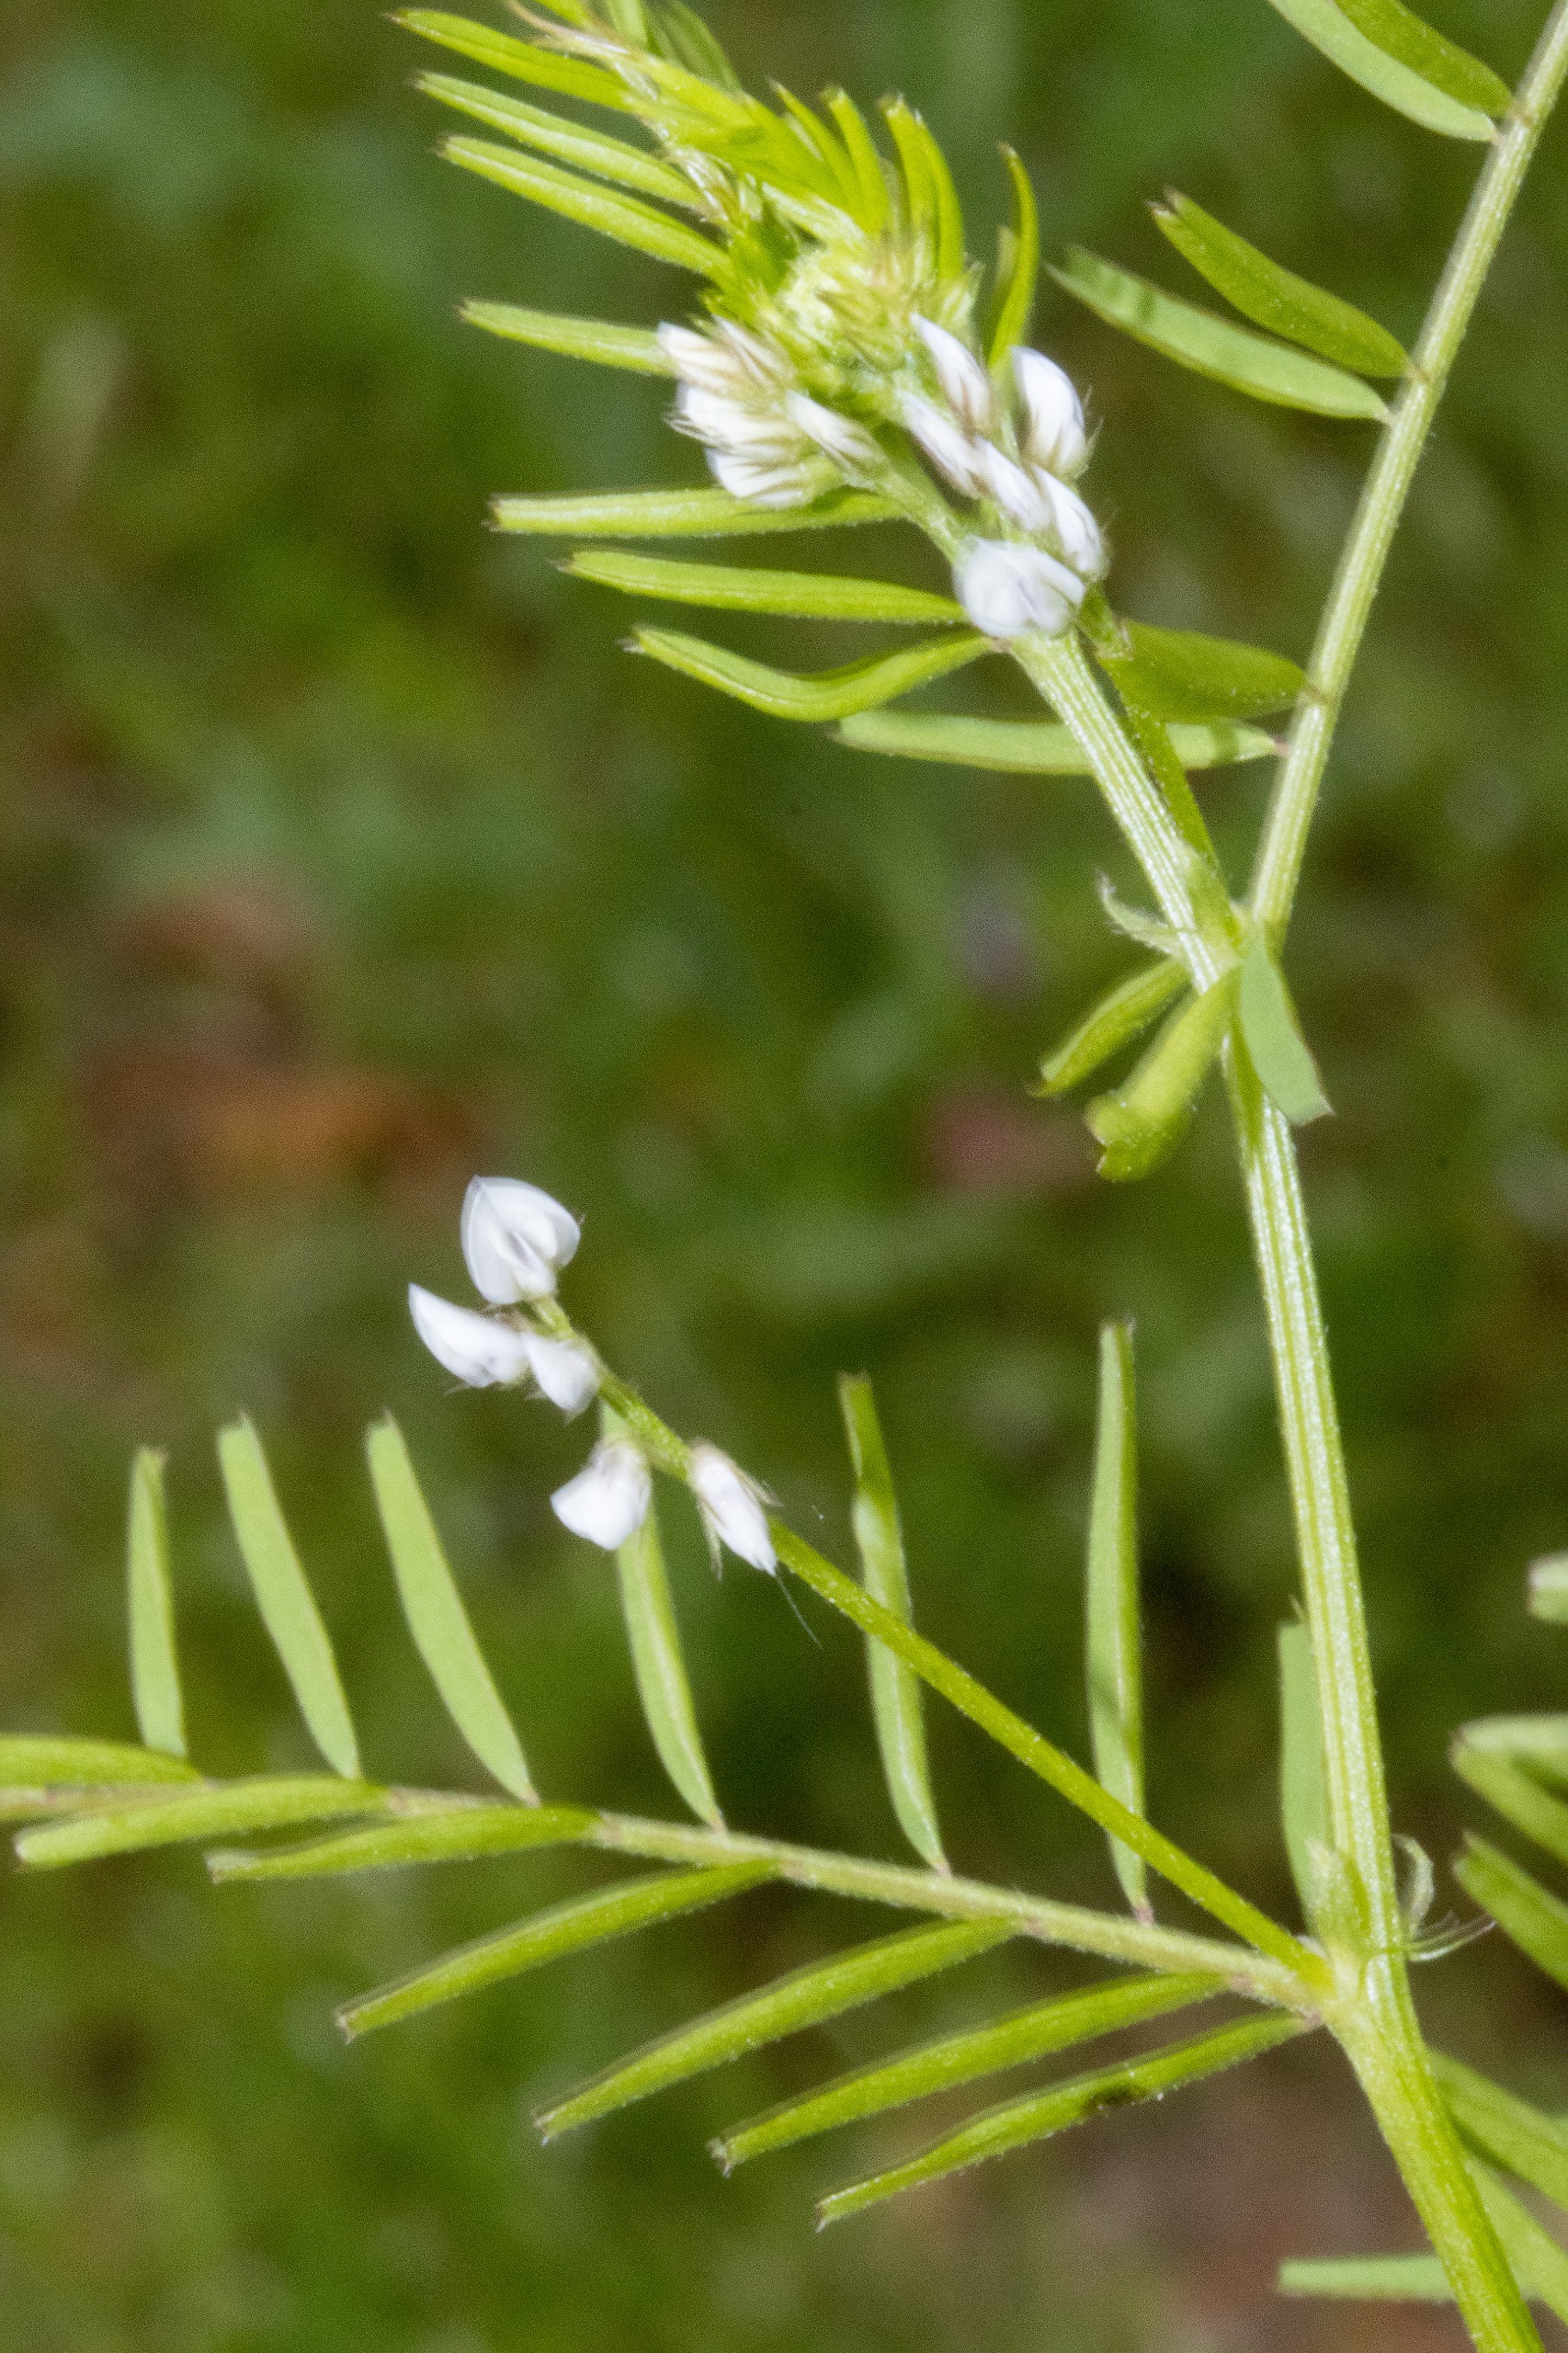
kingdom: Plantae
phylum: Tracheophyta
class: Magnoliopsida
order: Fabales
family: Fabaceae
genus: Vicia
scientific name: Vicia hirsuta
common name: Tofrøet vikke
